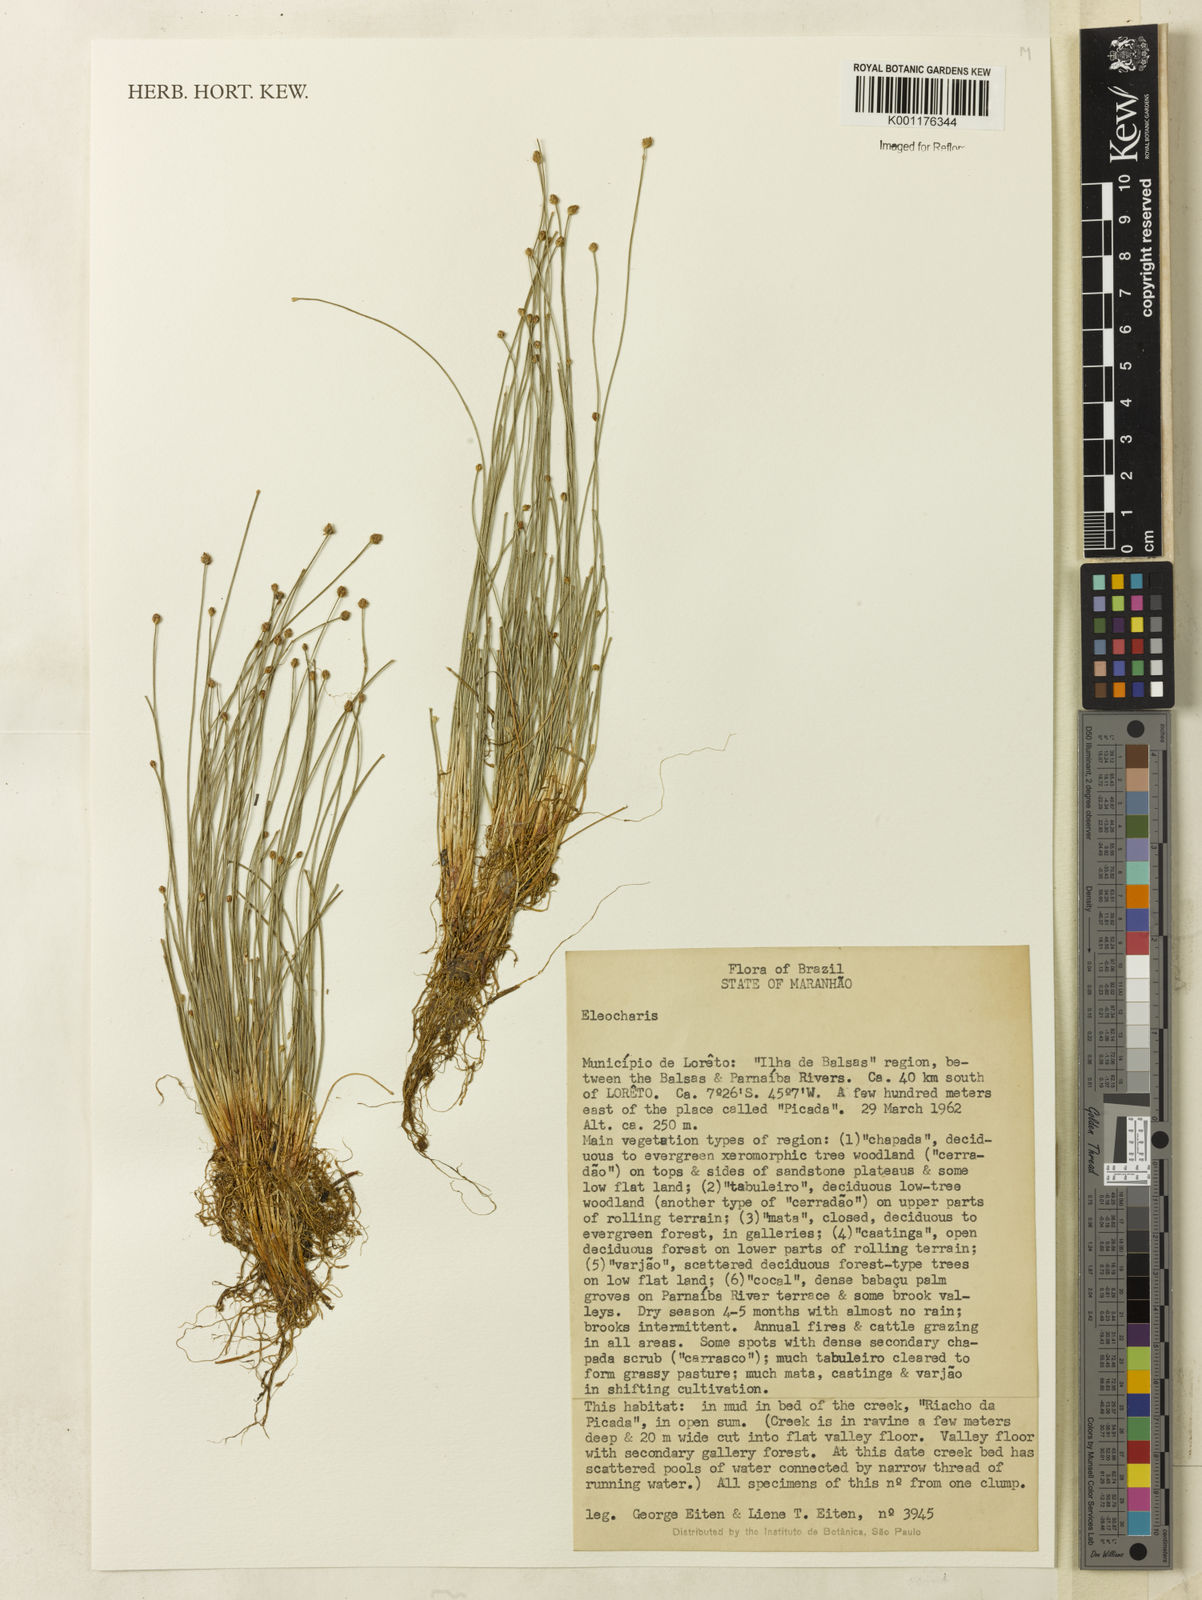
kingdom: Plantae
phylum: Tracheophyta
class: Liliopsida
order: Poales
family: Cyperaceae
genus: Eleocharis
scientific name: Eleocharis
